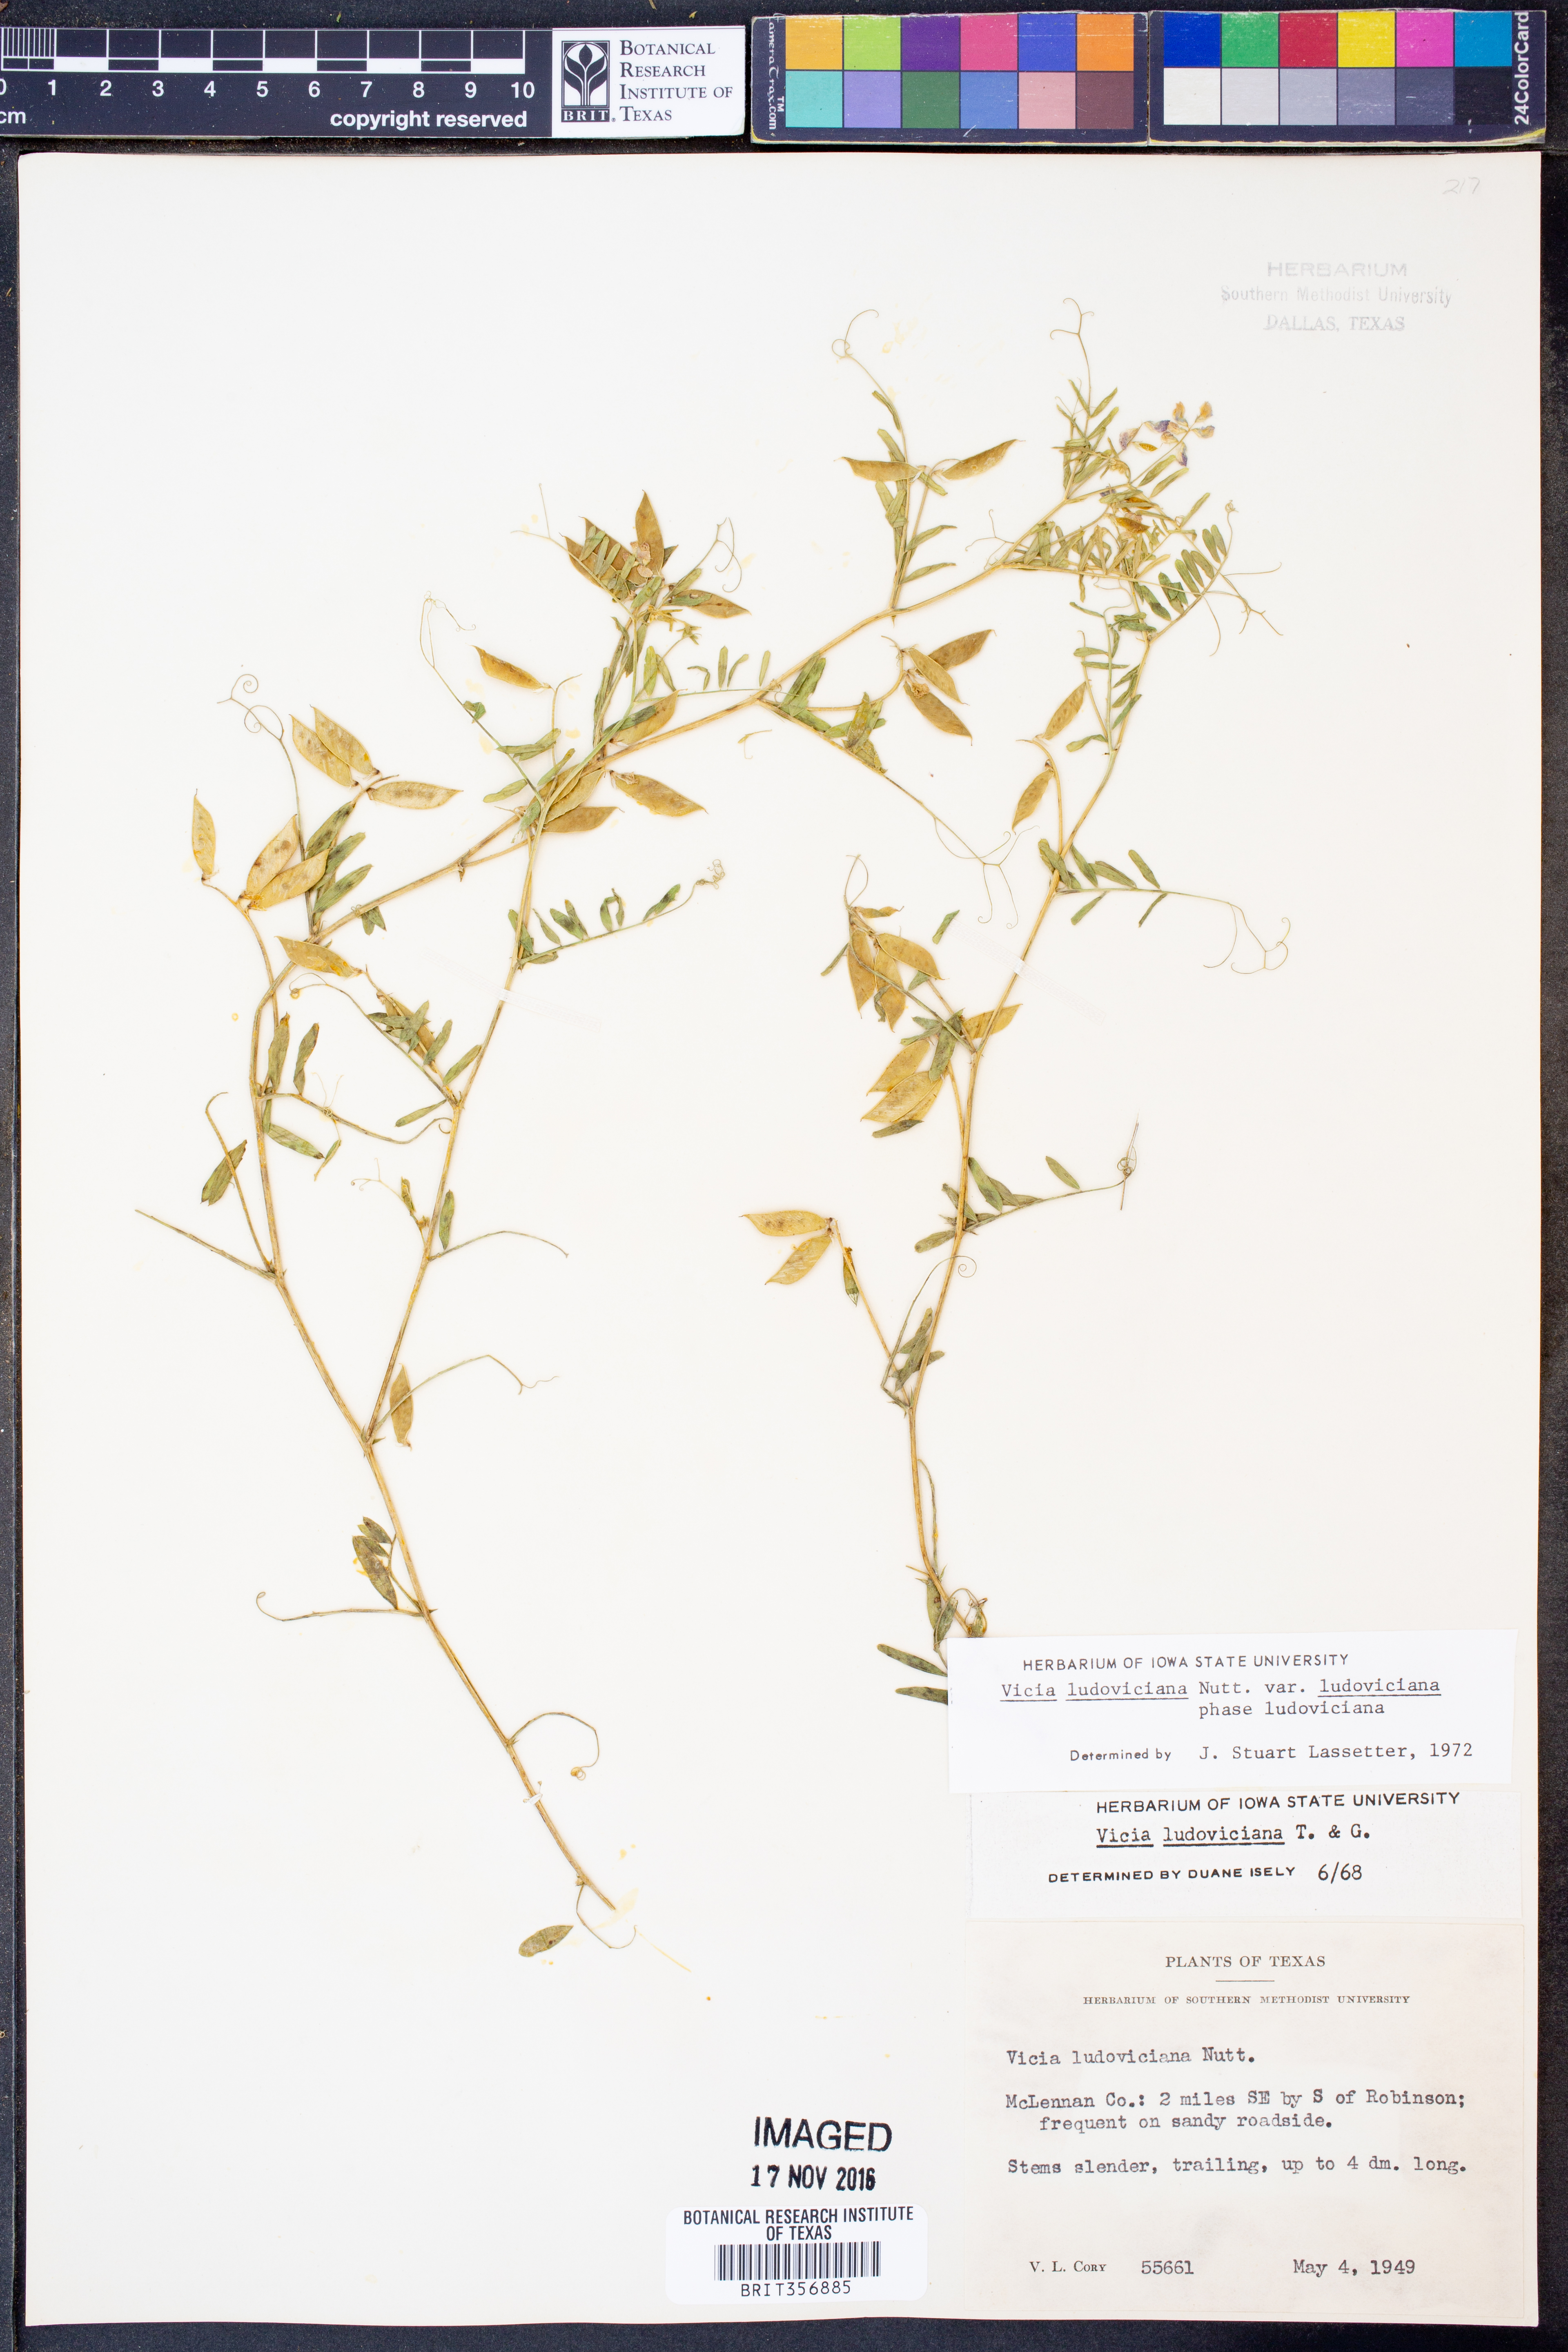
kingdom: Plantae
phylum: Tracheophyta
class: Magnoliopsida
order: Fabales
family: Fabaceae
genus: Vicia
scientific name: Vicia ludoviciana
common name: Louisiana vetch
